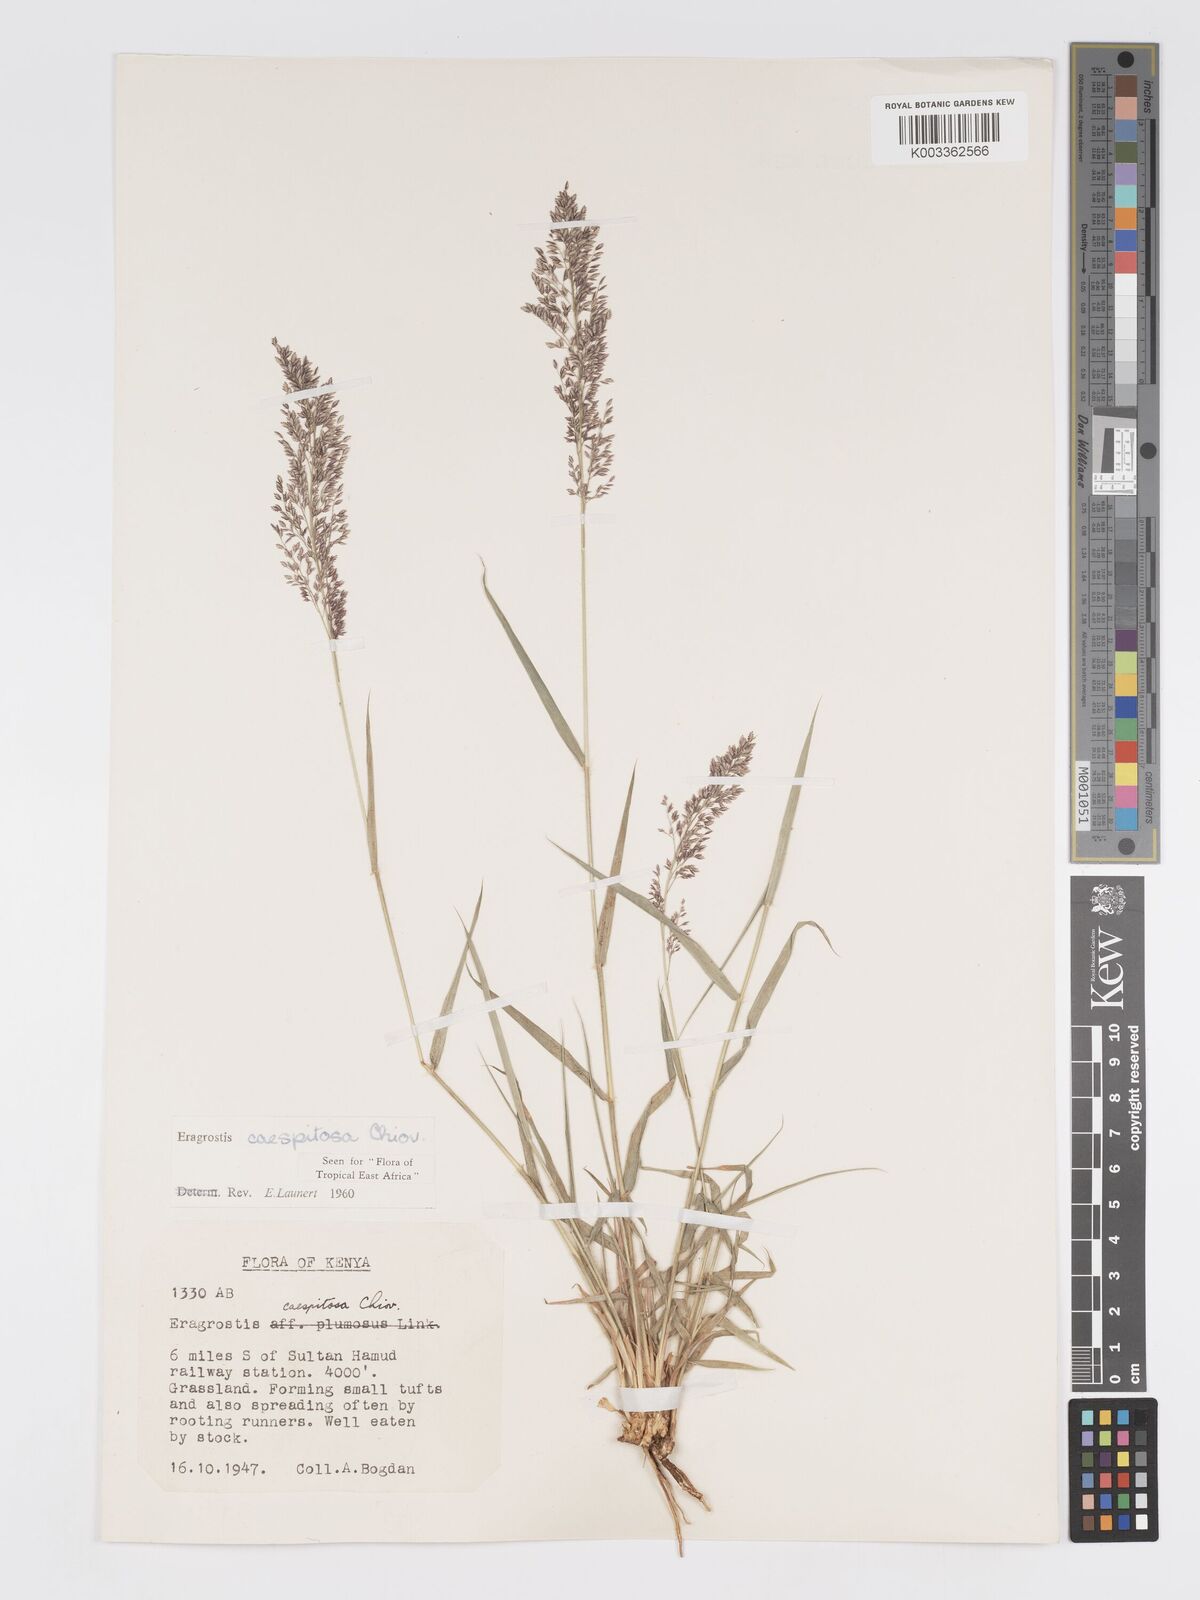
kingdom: Plantae
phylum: Tracheophyta
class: Liliopsida
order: Poales
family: Poaceae
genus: Eragrostis
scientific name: Eragrostis caespitosa
